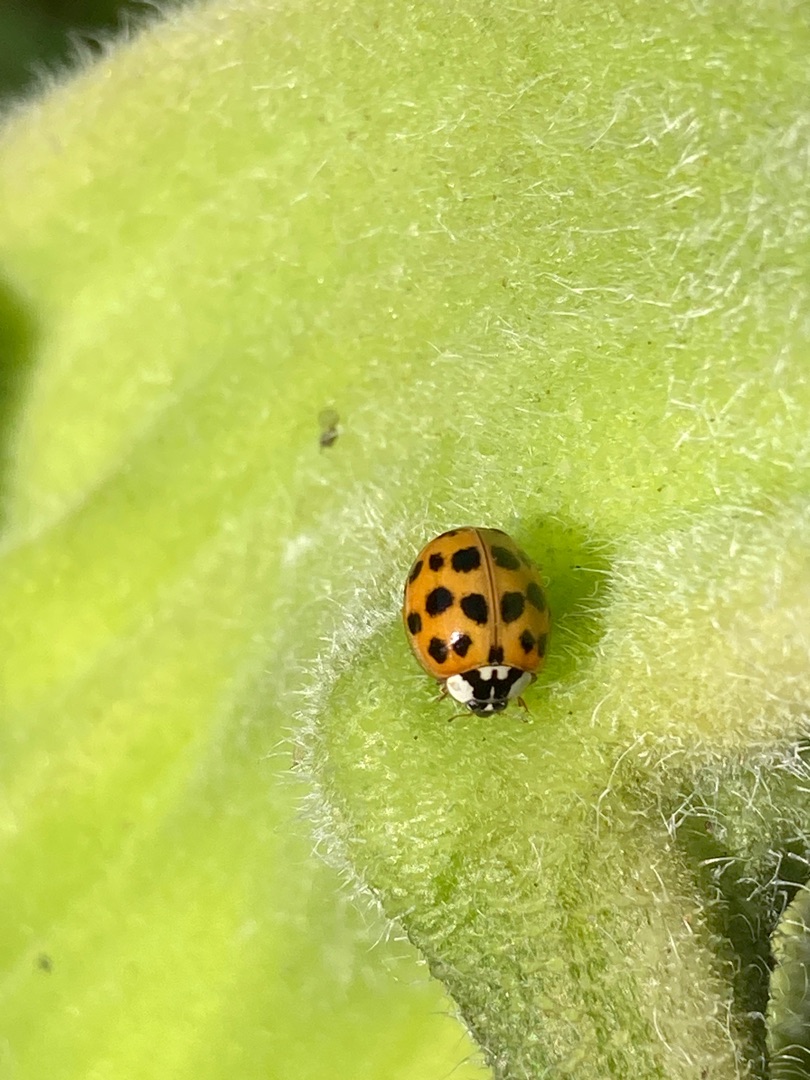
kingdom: Animalia
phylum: Arthropoda
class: Insecta
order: Coleoptera
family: Coccinellidae
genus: Harmonia
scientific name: Harmonia axyridis
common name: Harlekinmariehøne
